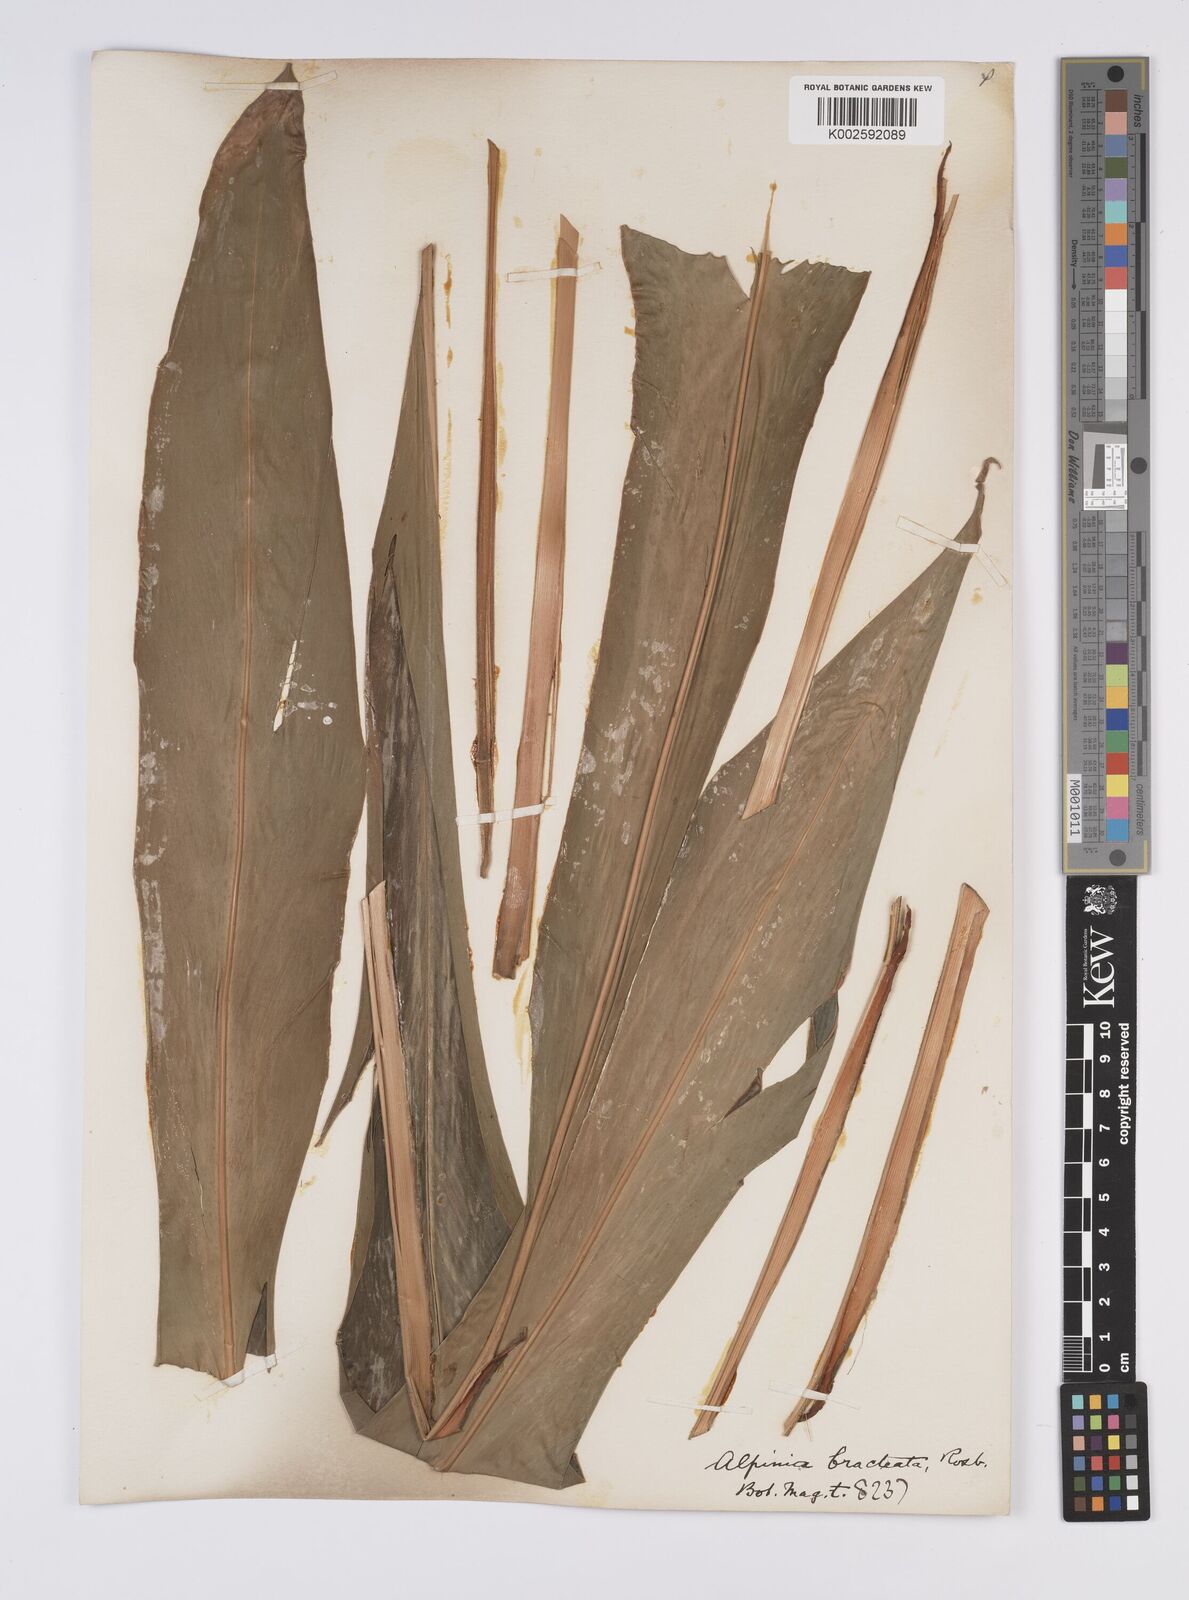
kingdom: Plantae
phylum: Tracheophyta
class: Liliopsida
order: Zingiberales
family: Zingiberaceae
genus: Alpinia
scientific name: Alpinia roxburghii
